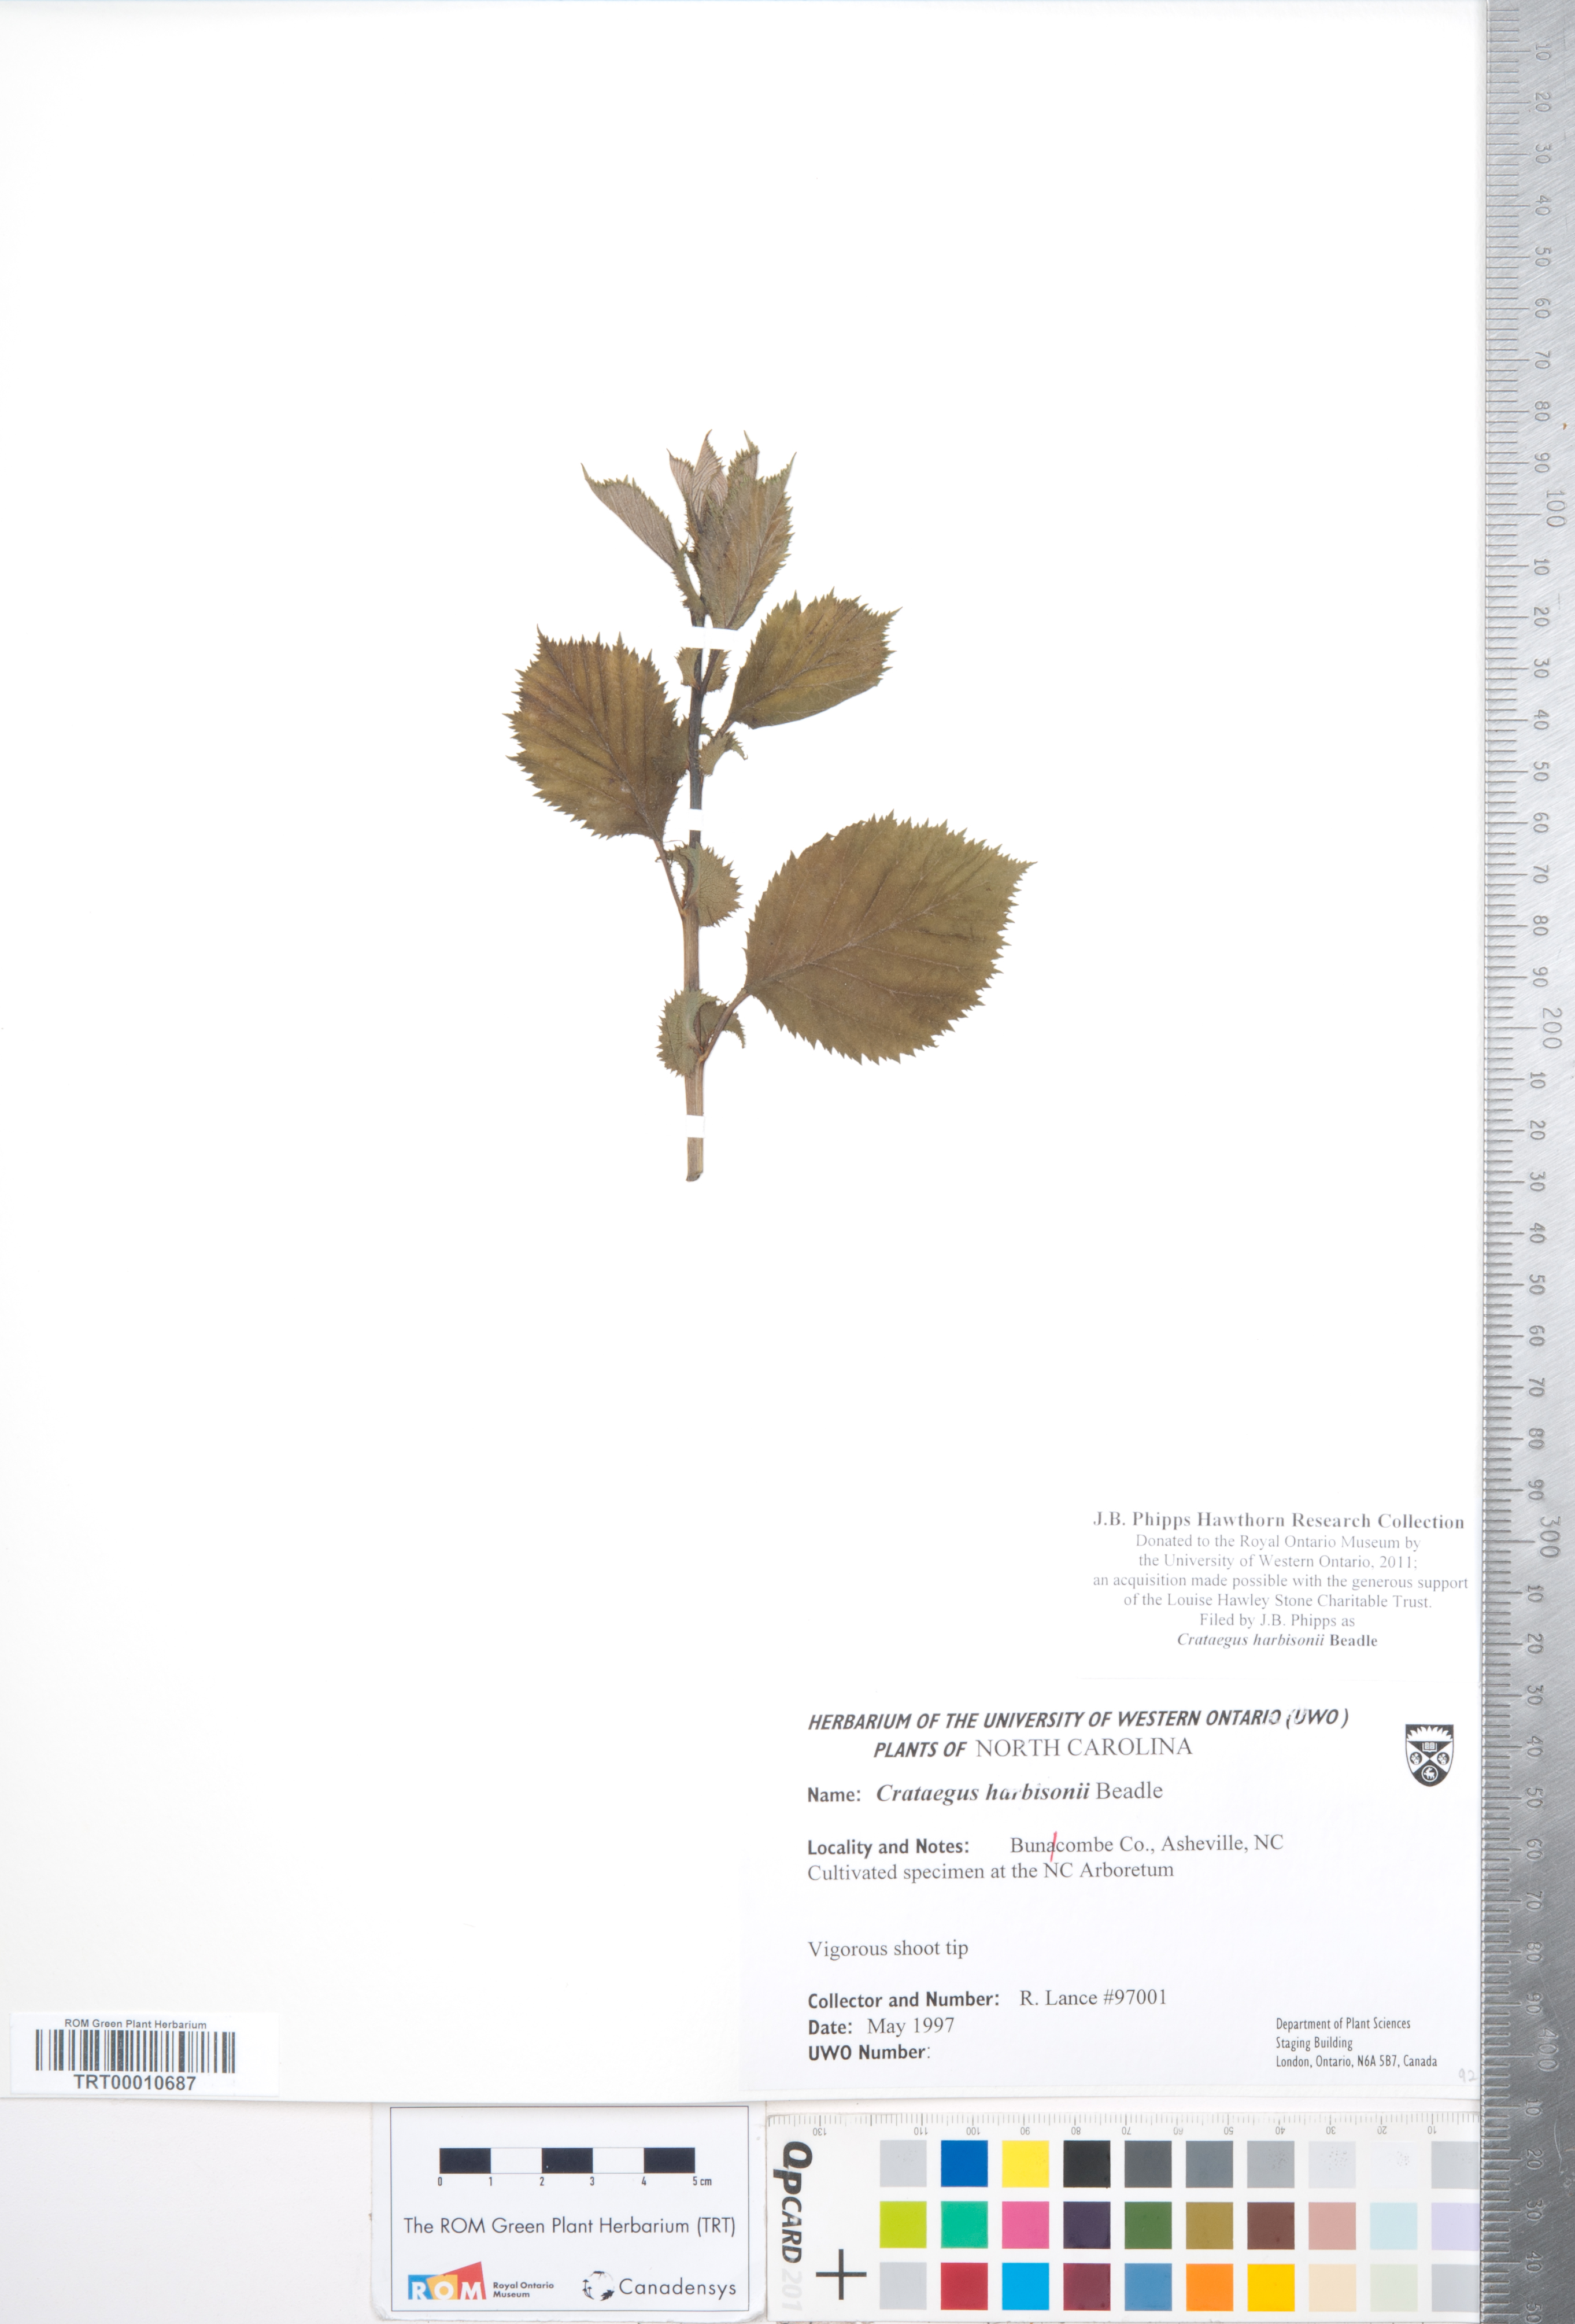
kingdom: Plantae
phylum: Tracheophyta
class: Magnoliopsida
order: Rosales
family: Rosaceae
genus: Crataegus
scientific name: Crataegus harbisonii
